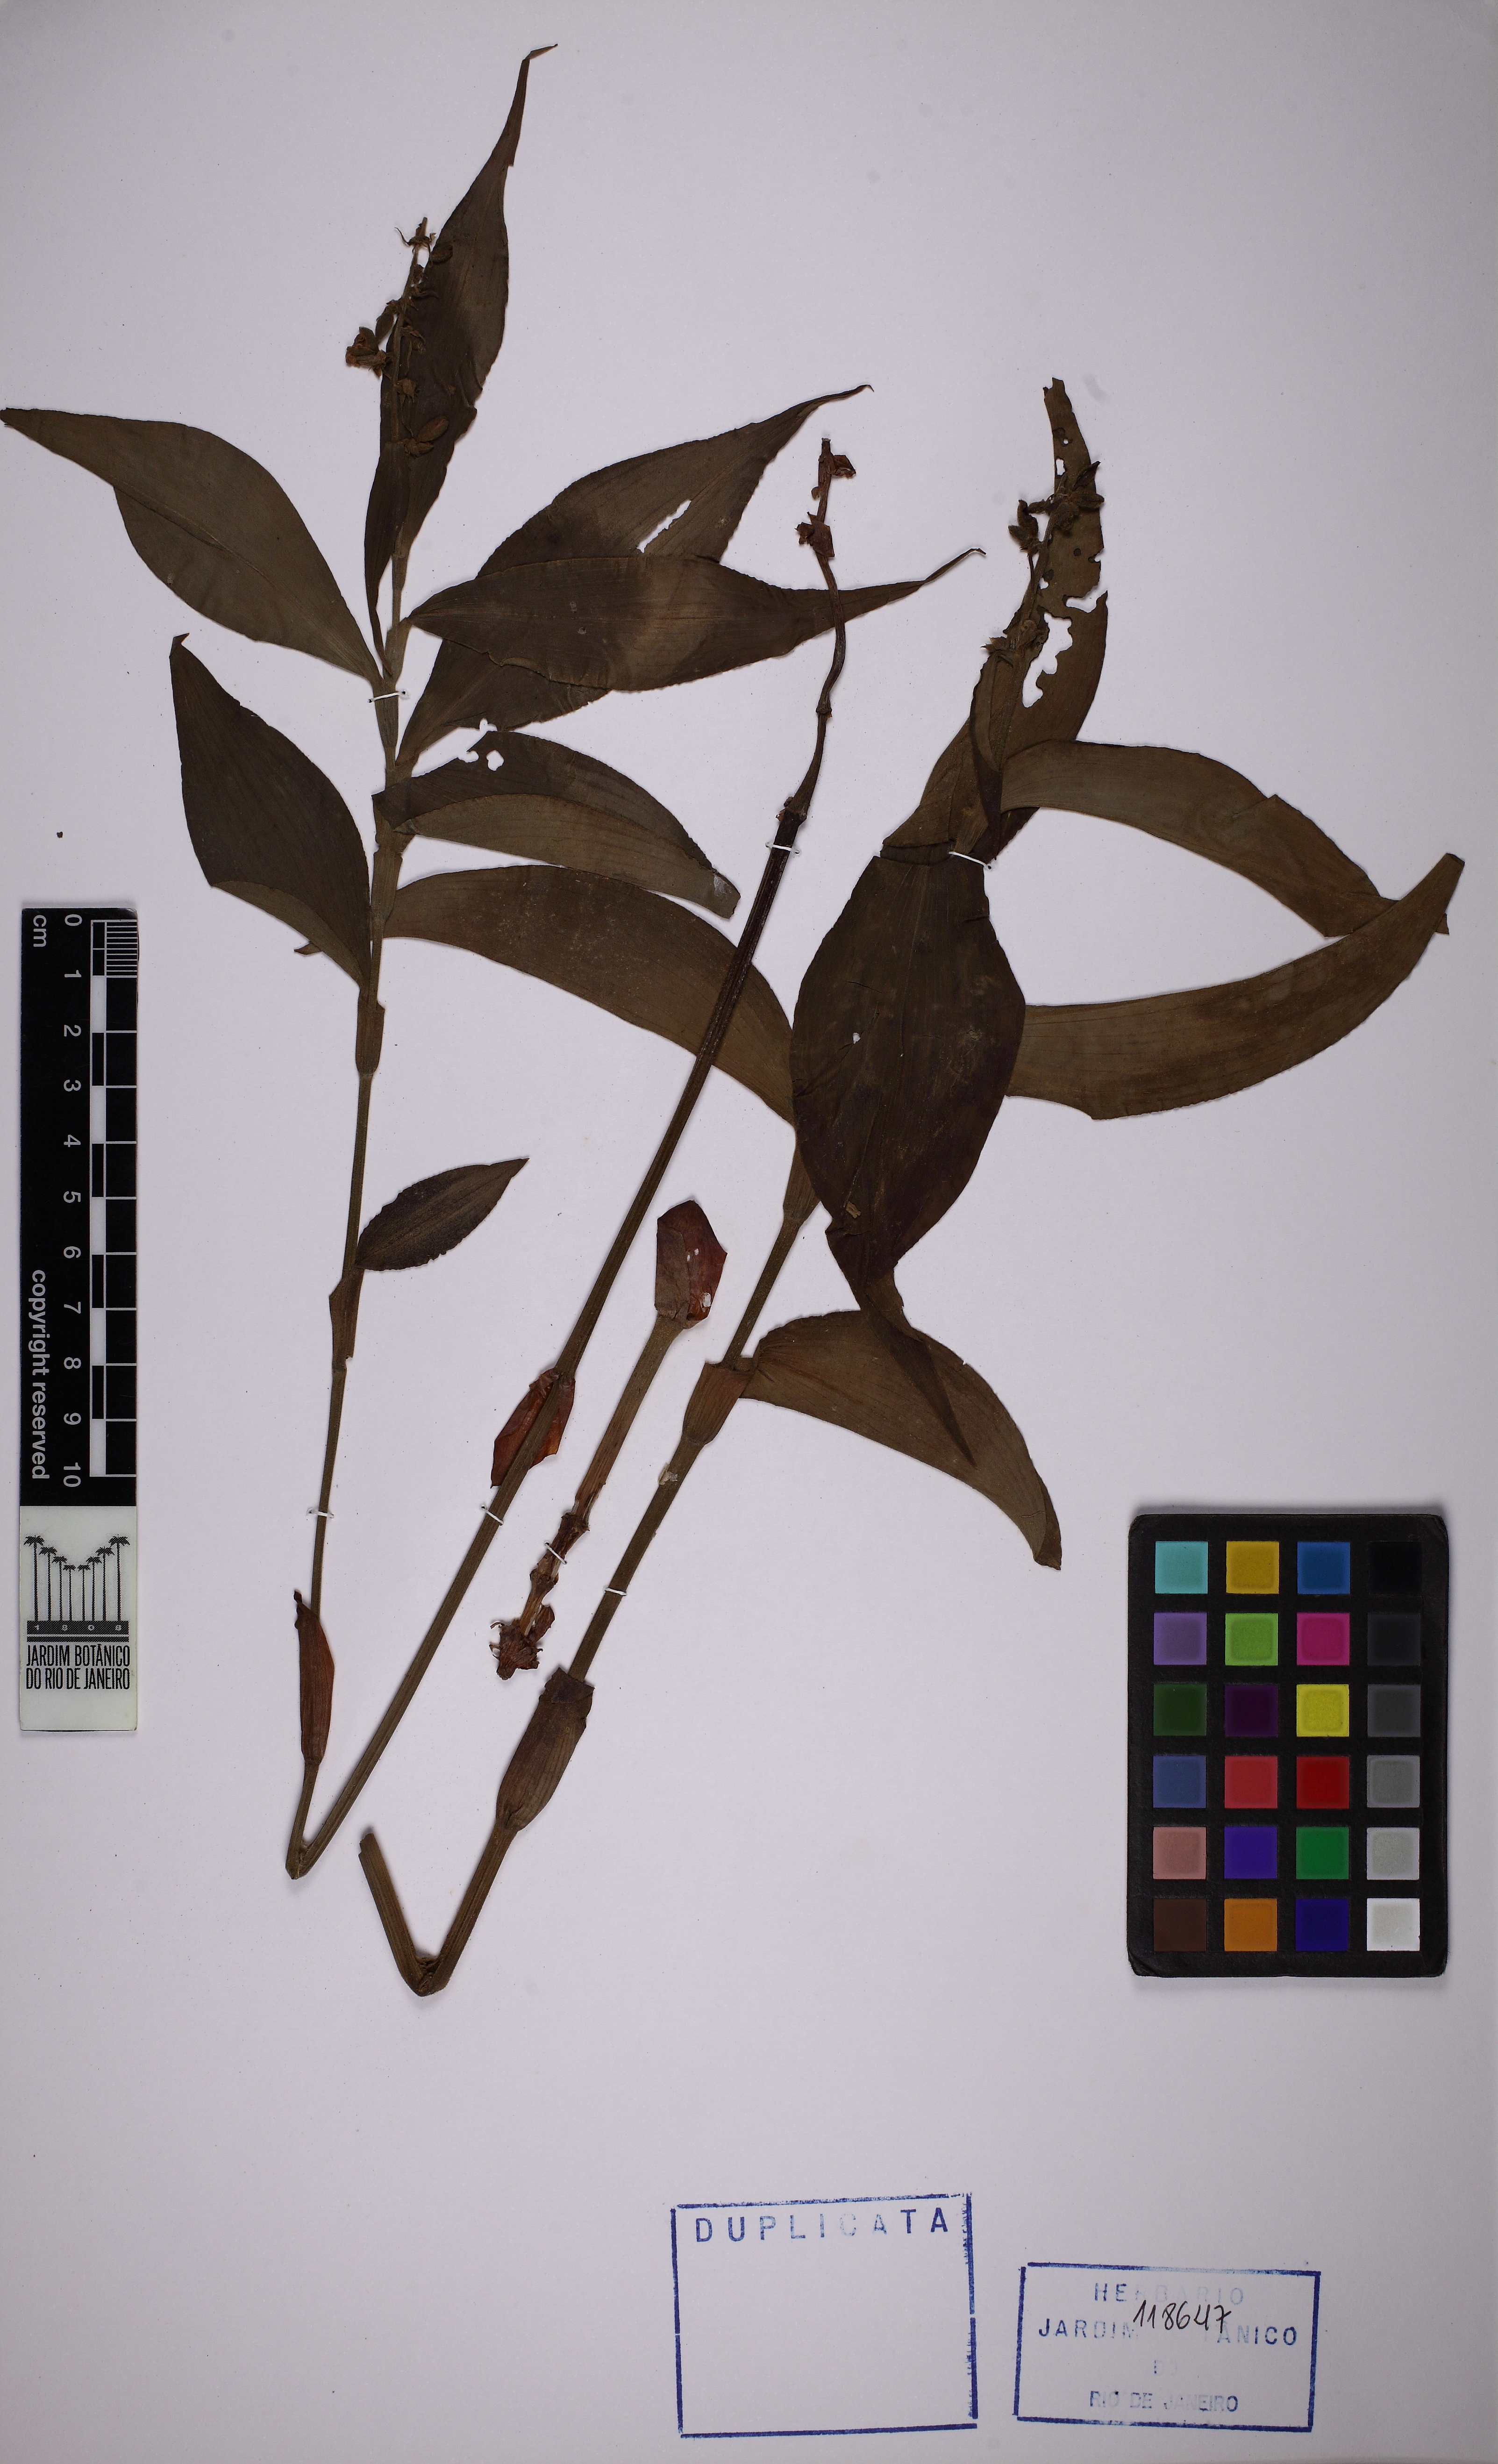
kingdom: Plantae
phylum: Tracheophyta
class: Liliopsida
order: Commelinales
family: Commelinaceae
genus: Dichorisandra
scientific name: Dichorisandra pubescens
